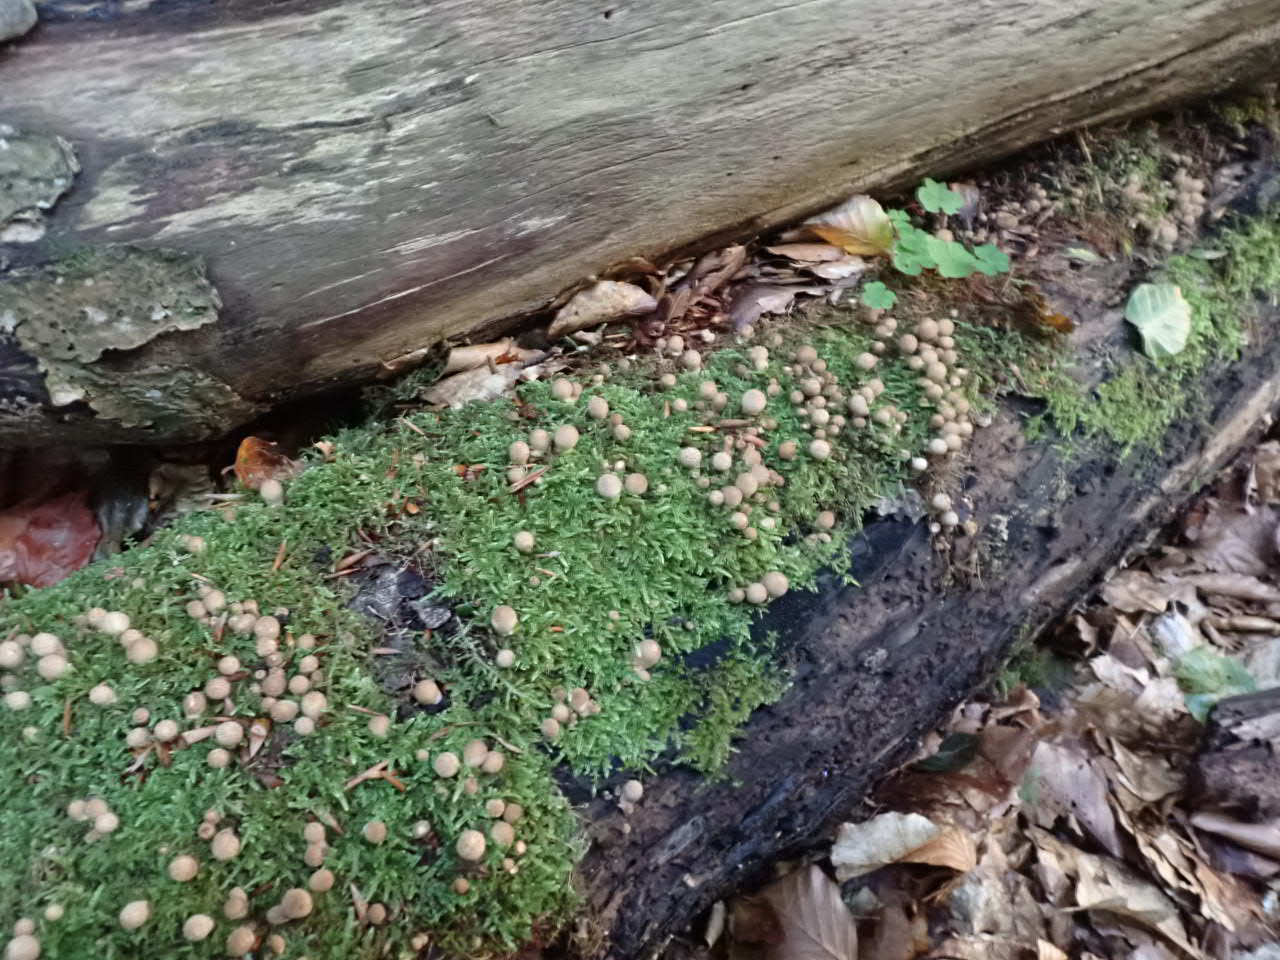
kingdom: Fungi
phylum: Basidiomycota
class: Agaricomycetes
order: Agaricales
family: Lycoperdaceae
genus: Lycoperdon
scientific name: Lycoperdon perlatum
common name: krystal-støvbold
